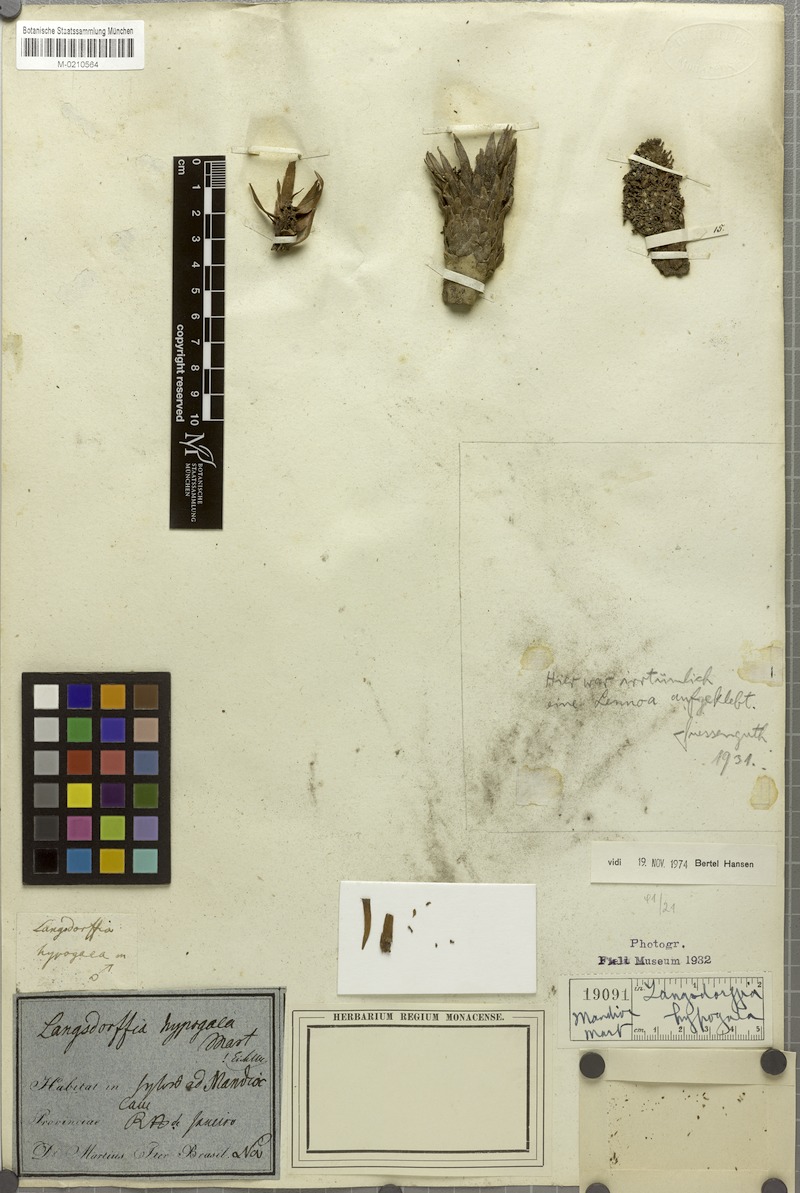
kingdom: Plantae
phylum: Tracheophyta
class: Magnoliopsida
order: Santalales
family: Balanophoraceae
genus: Langsdorffia
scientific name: Langsdorffia hypogaea
